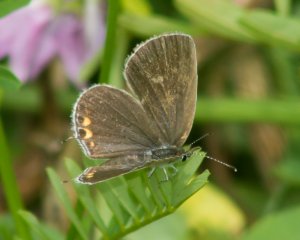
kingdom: Animalia
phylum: Arthropoda
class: Insecta
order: Lepidoptera
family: Lycaenidae
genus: Elkalyce
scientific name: Elkalyce comyntas
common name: Eastern Tailed-Blue
